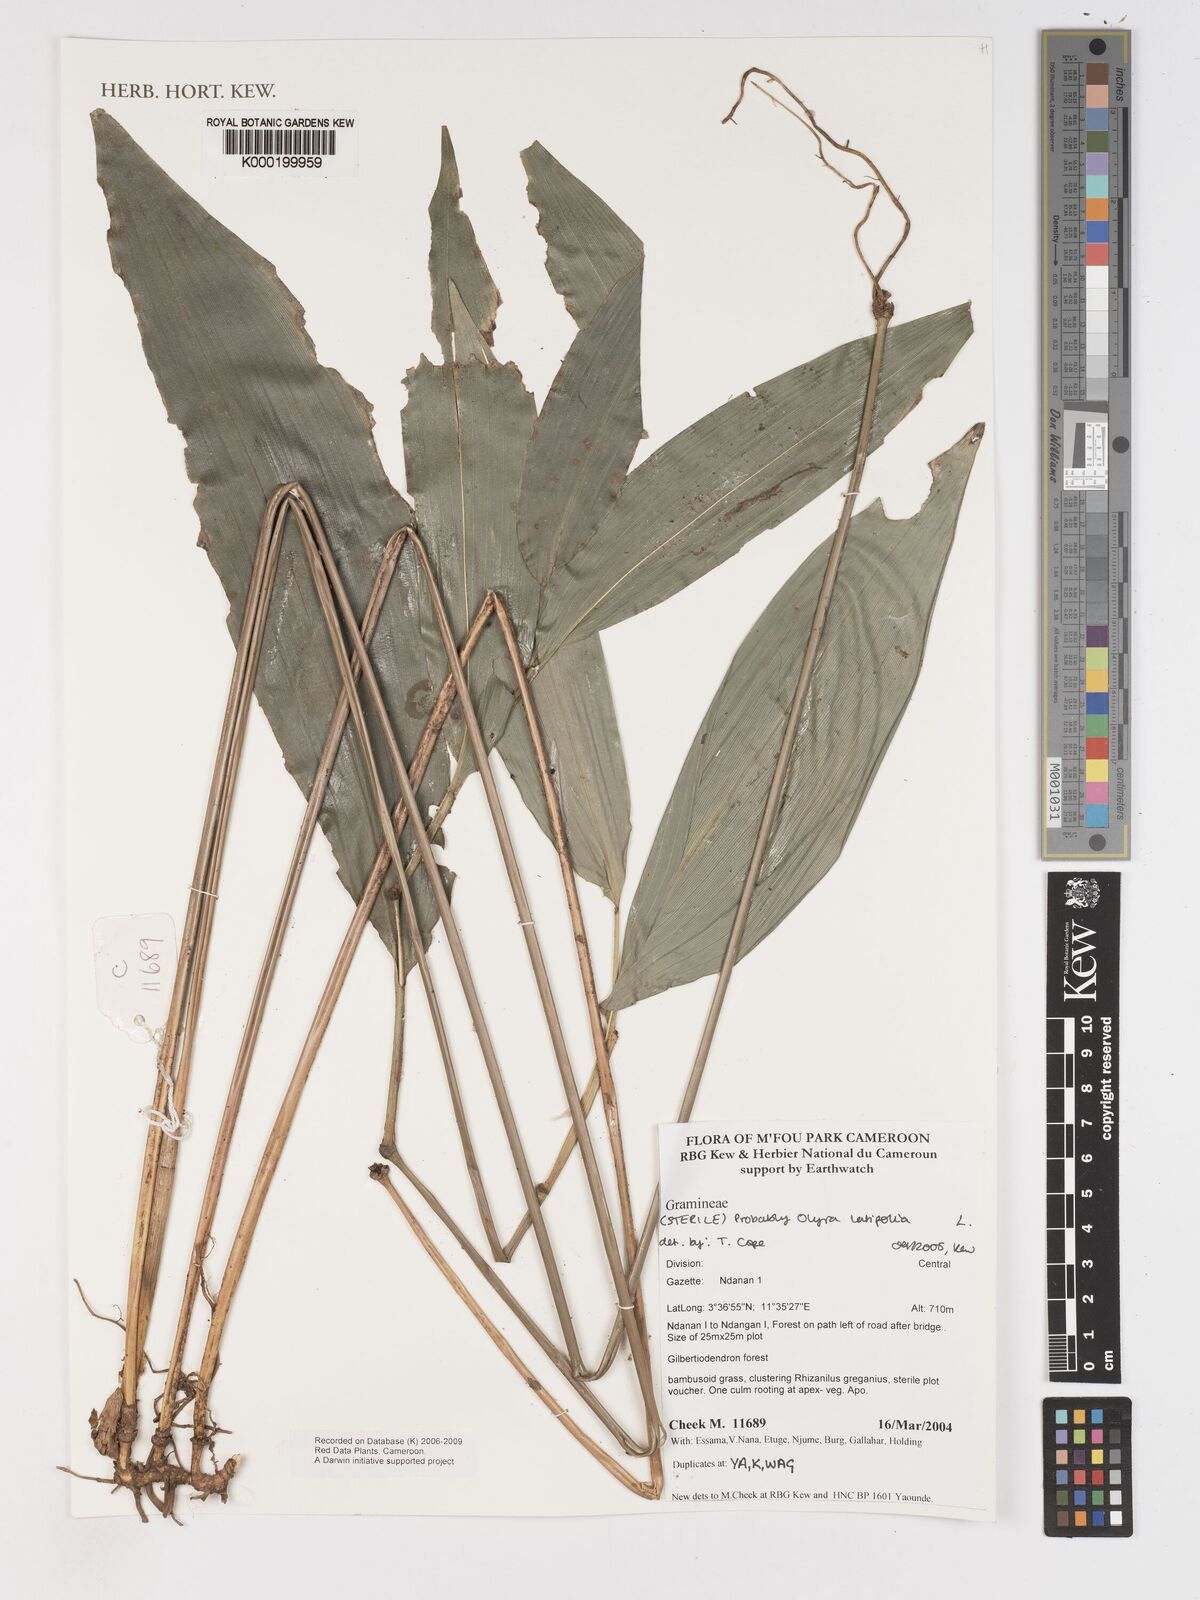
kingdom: Plantae
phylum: Tracheophyta
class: Liliopsida
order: Poales
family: Poaceae
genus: Olyra
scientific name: Olyra latifolia
